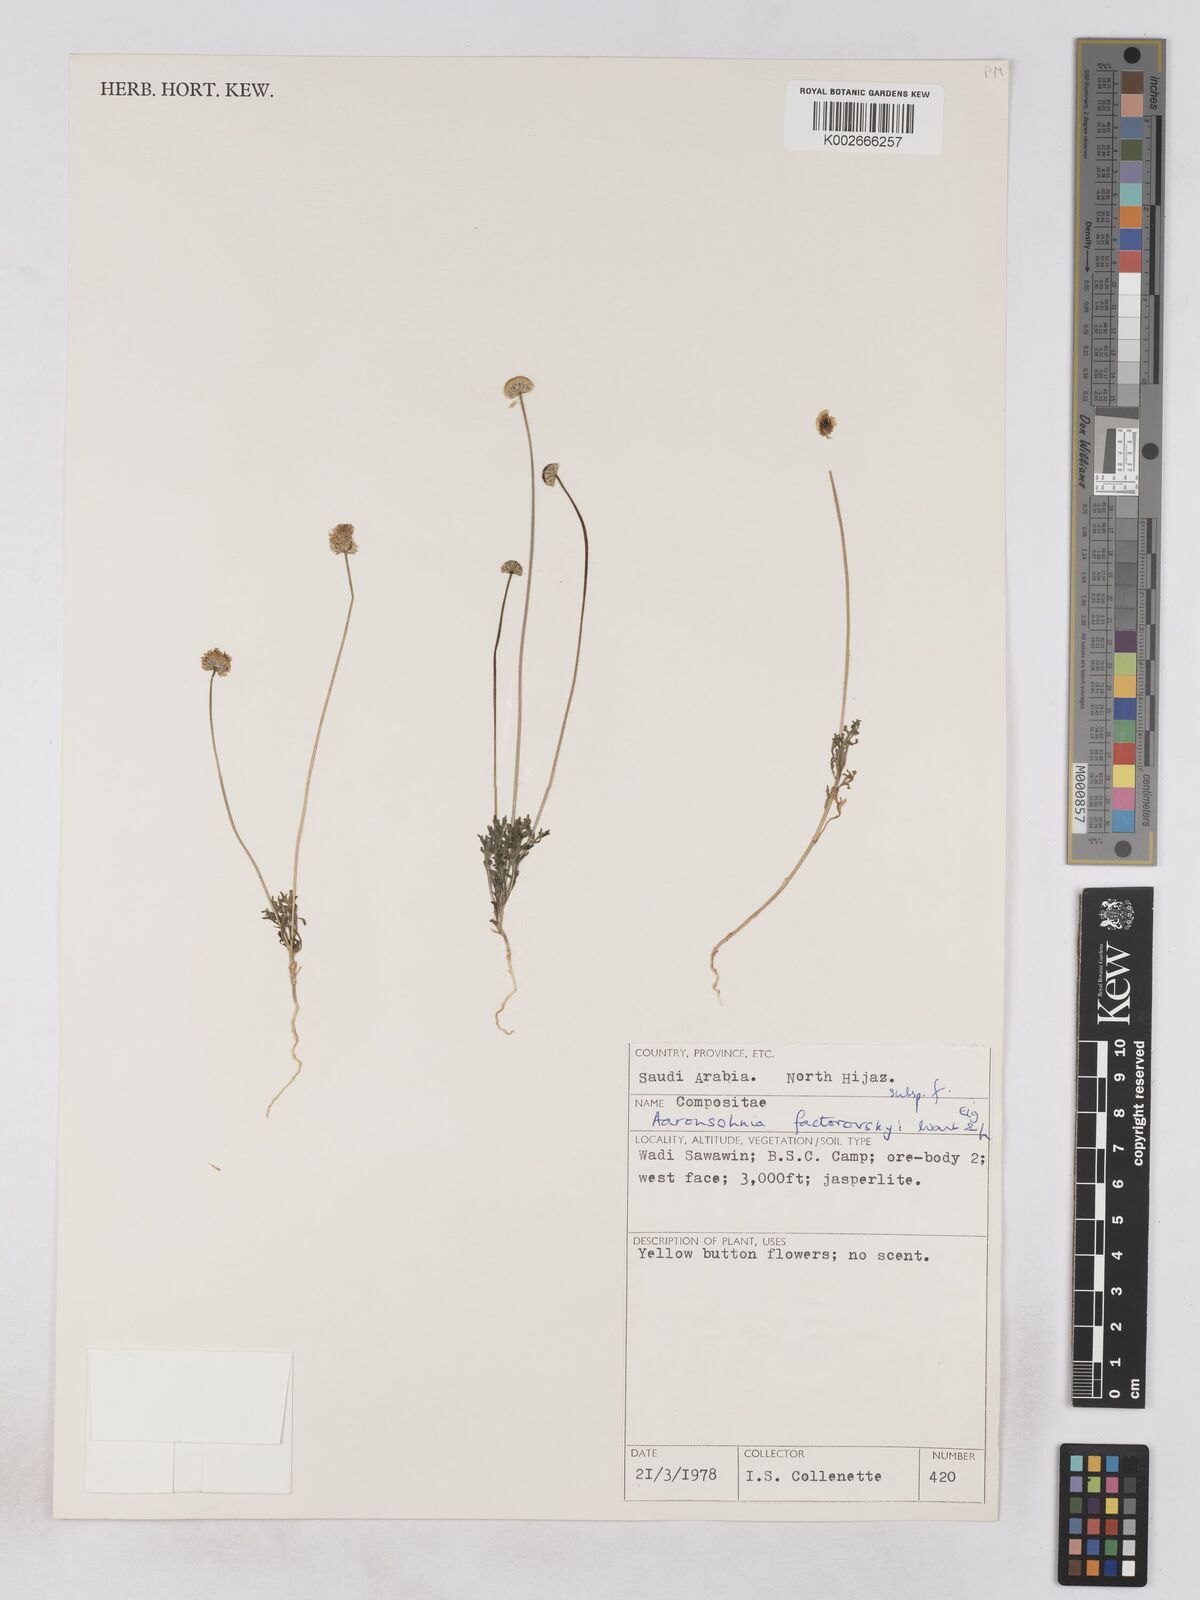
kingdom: Plantae
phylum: Tracheophyta
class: Magnoliopsida
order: Asterales
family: Asteraceae
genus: Otoglyphis
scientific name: Otoglyphis factorovskyi
